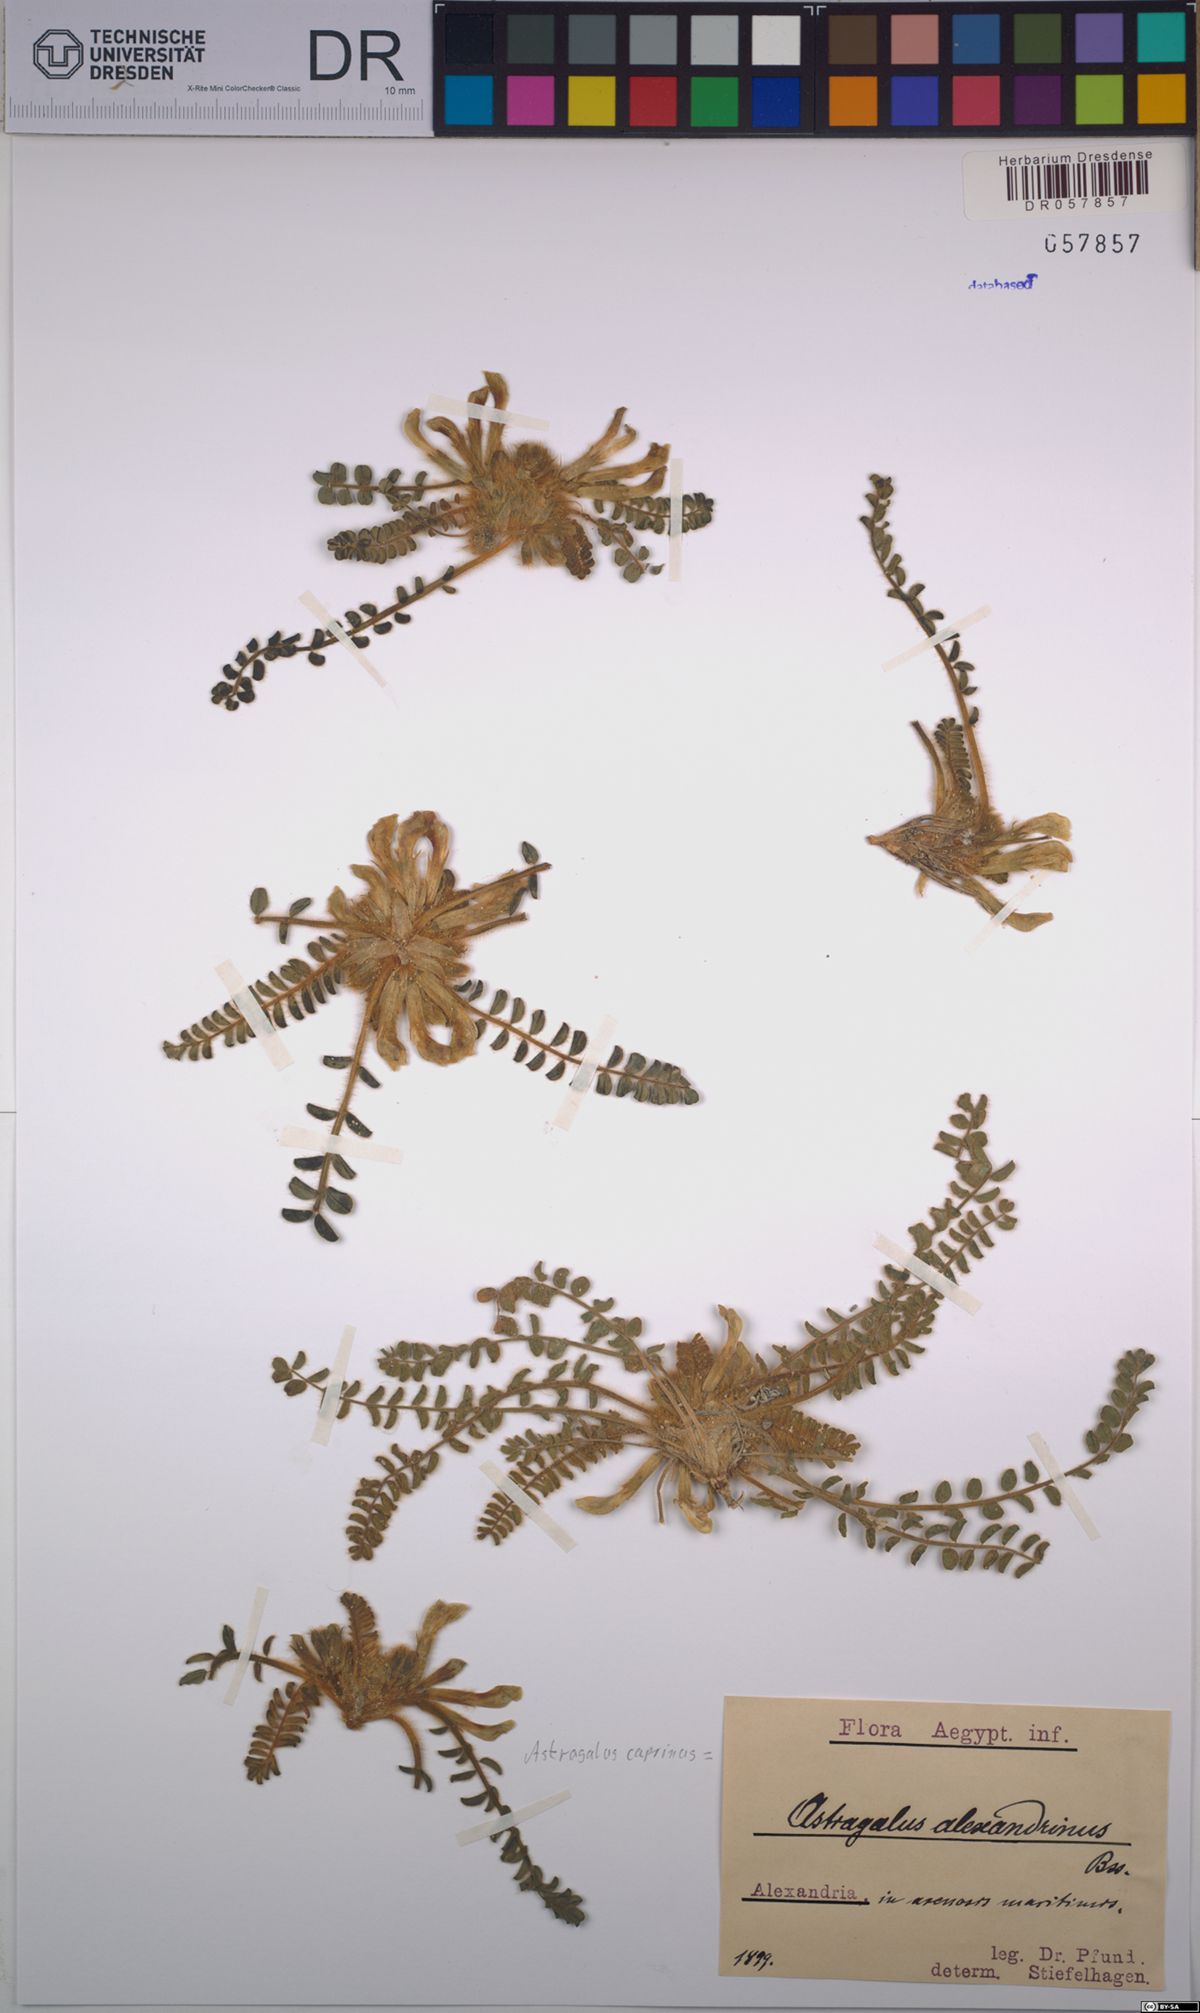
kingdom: Plantae
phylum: Tracheophyta
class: Magnoliopsida
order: Fabales
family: Fabaceae
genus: Astragalus
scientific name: Astragalus caprinus
